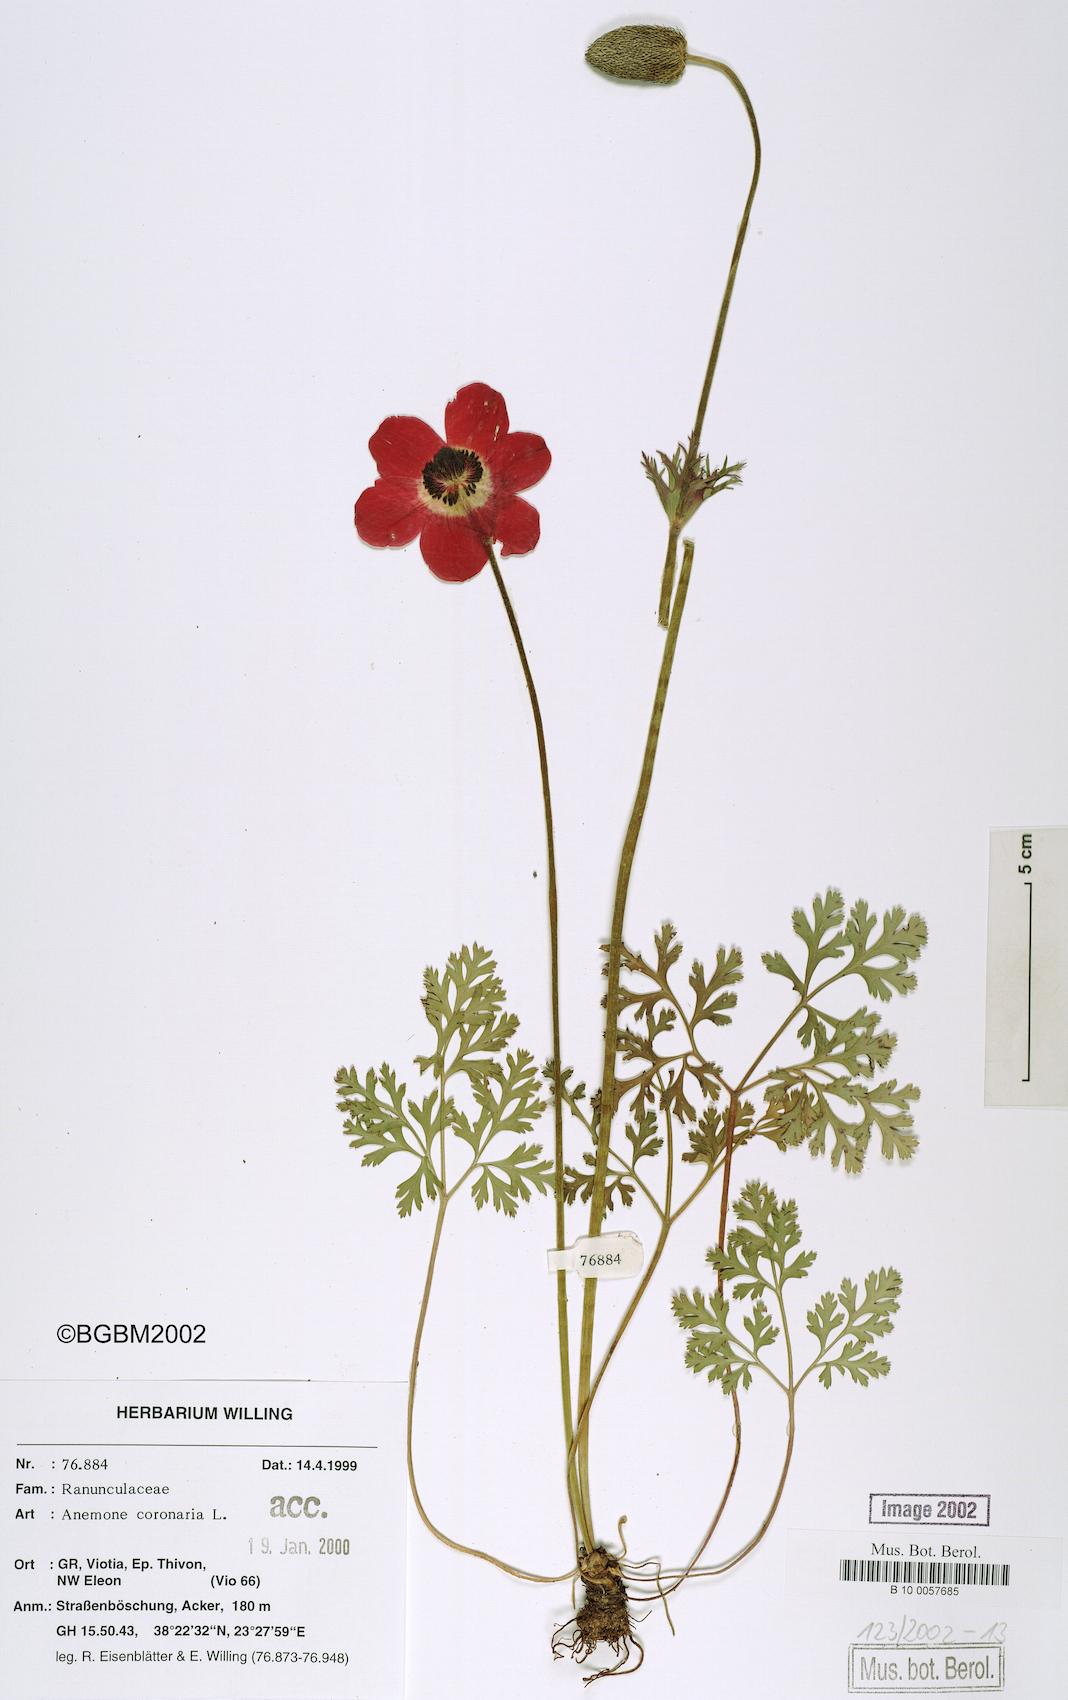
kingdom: Plantae
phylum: Tracheophyta
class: Magnoliopsida
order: Ranunculales
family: Ranunculaceae
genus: Anemone
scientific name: Anemone coronaria
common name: Poppy anemone
